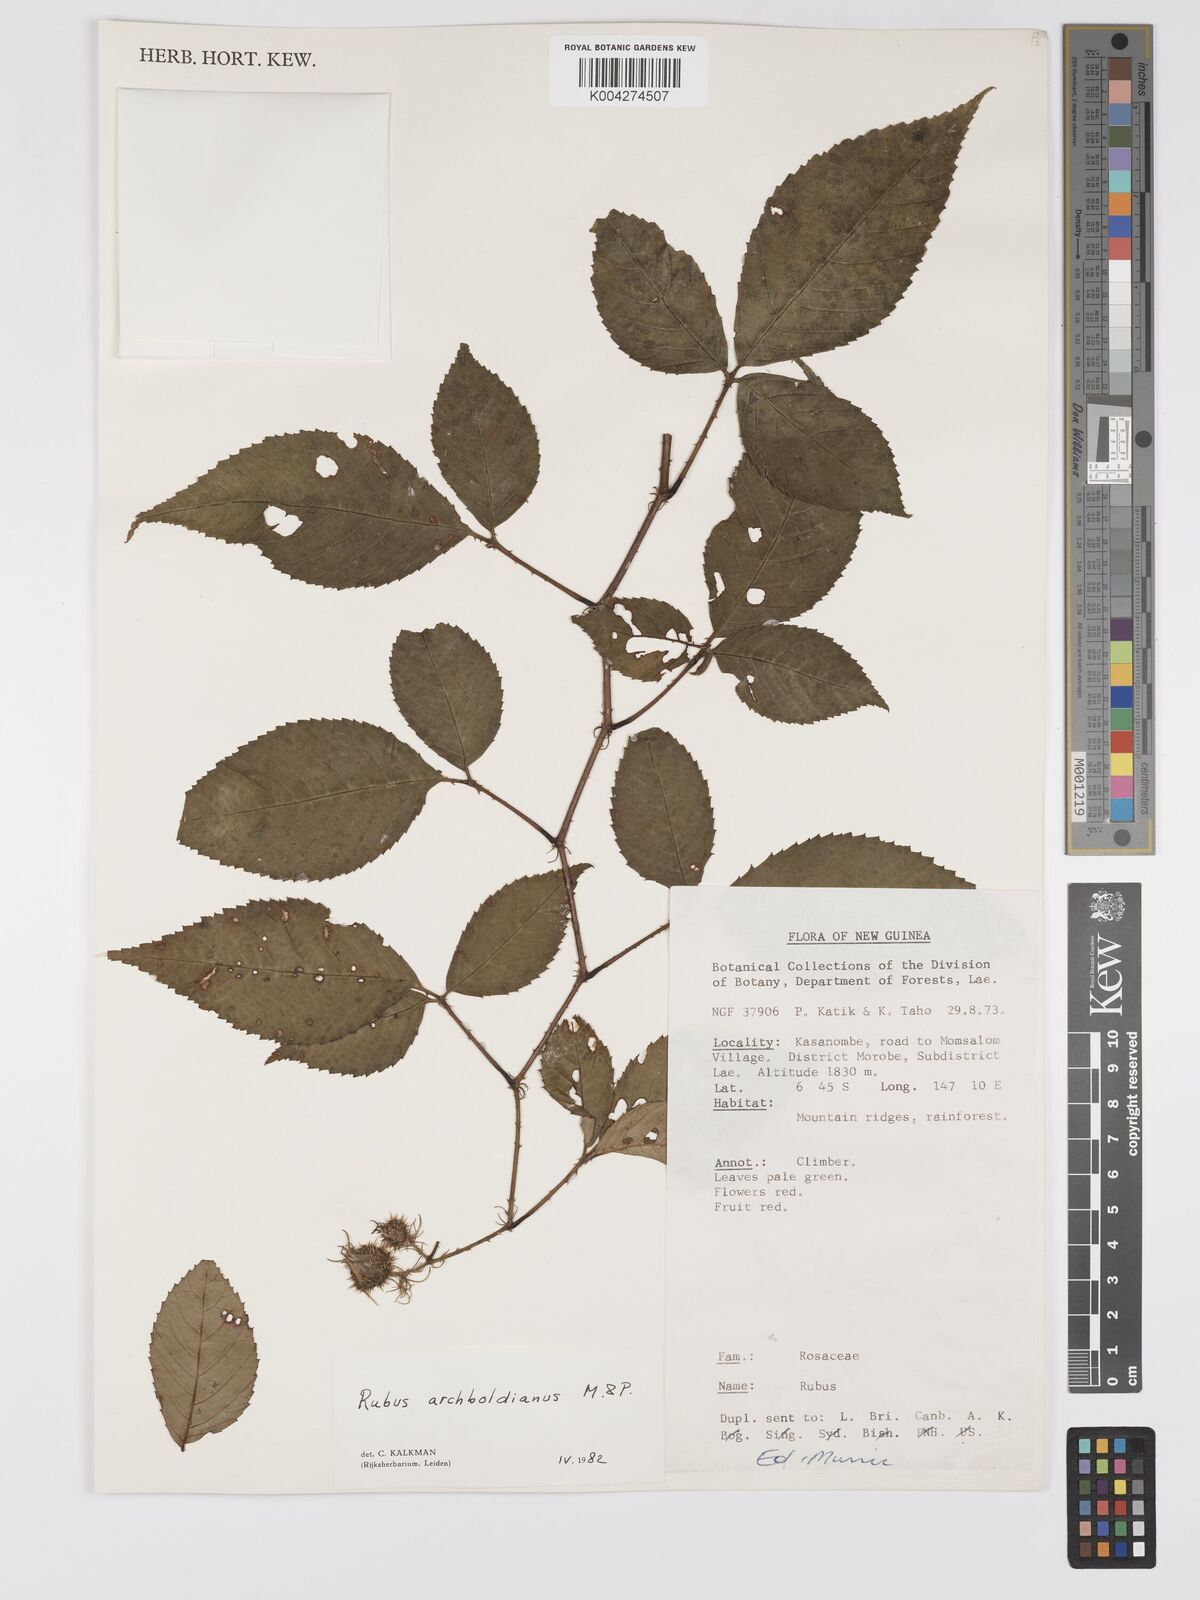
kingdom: Plantae
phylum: Tracheophyta
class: Magnoliopsida
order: Rosales
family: Rosaceae
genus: Rubus
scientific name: Rubus archboldianus
